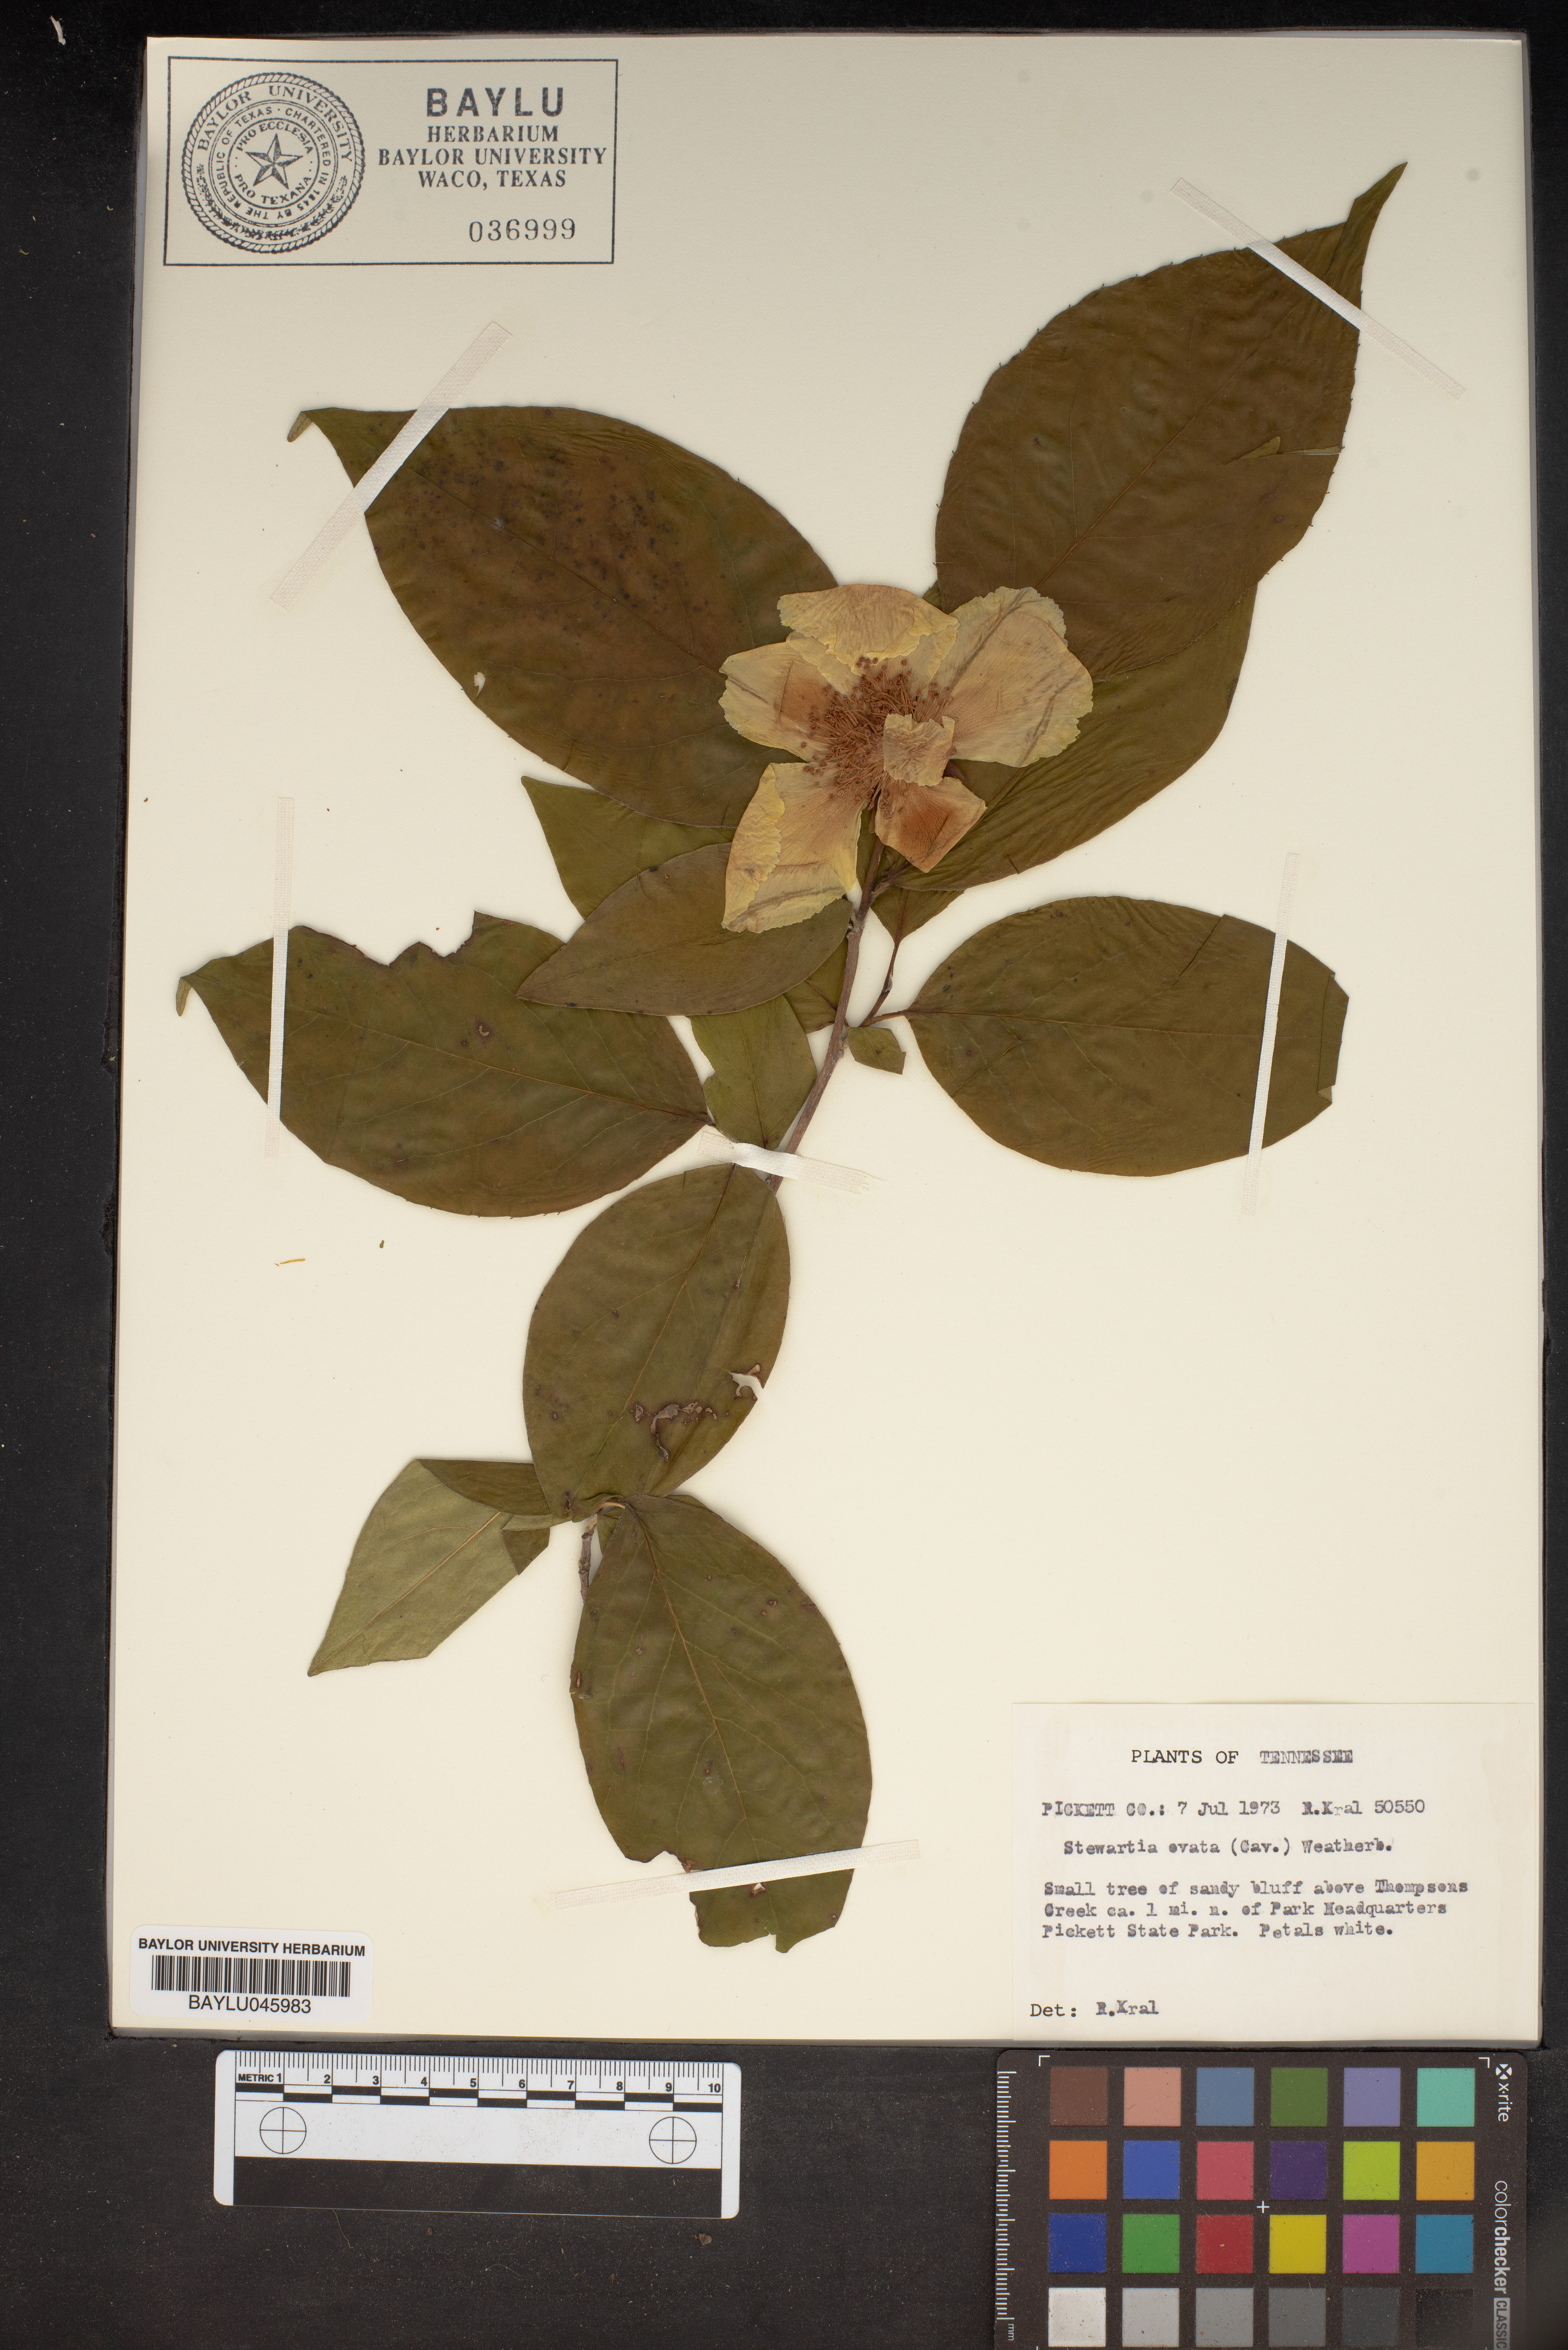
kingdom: Plantae
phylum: Tracheophyta
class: Magnoliopsida
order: Ericales
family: Theaceae
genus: Stewartia
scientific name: Stewartia ovata
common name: Mountain camellia
